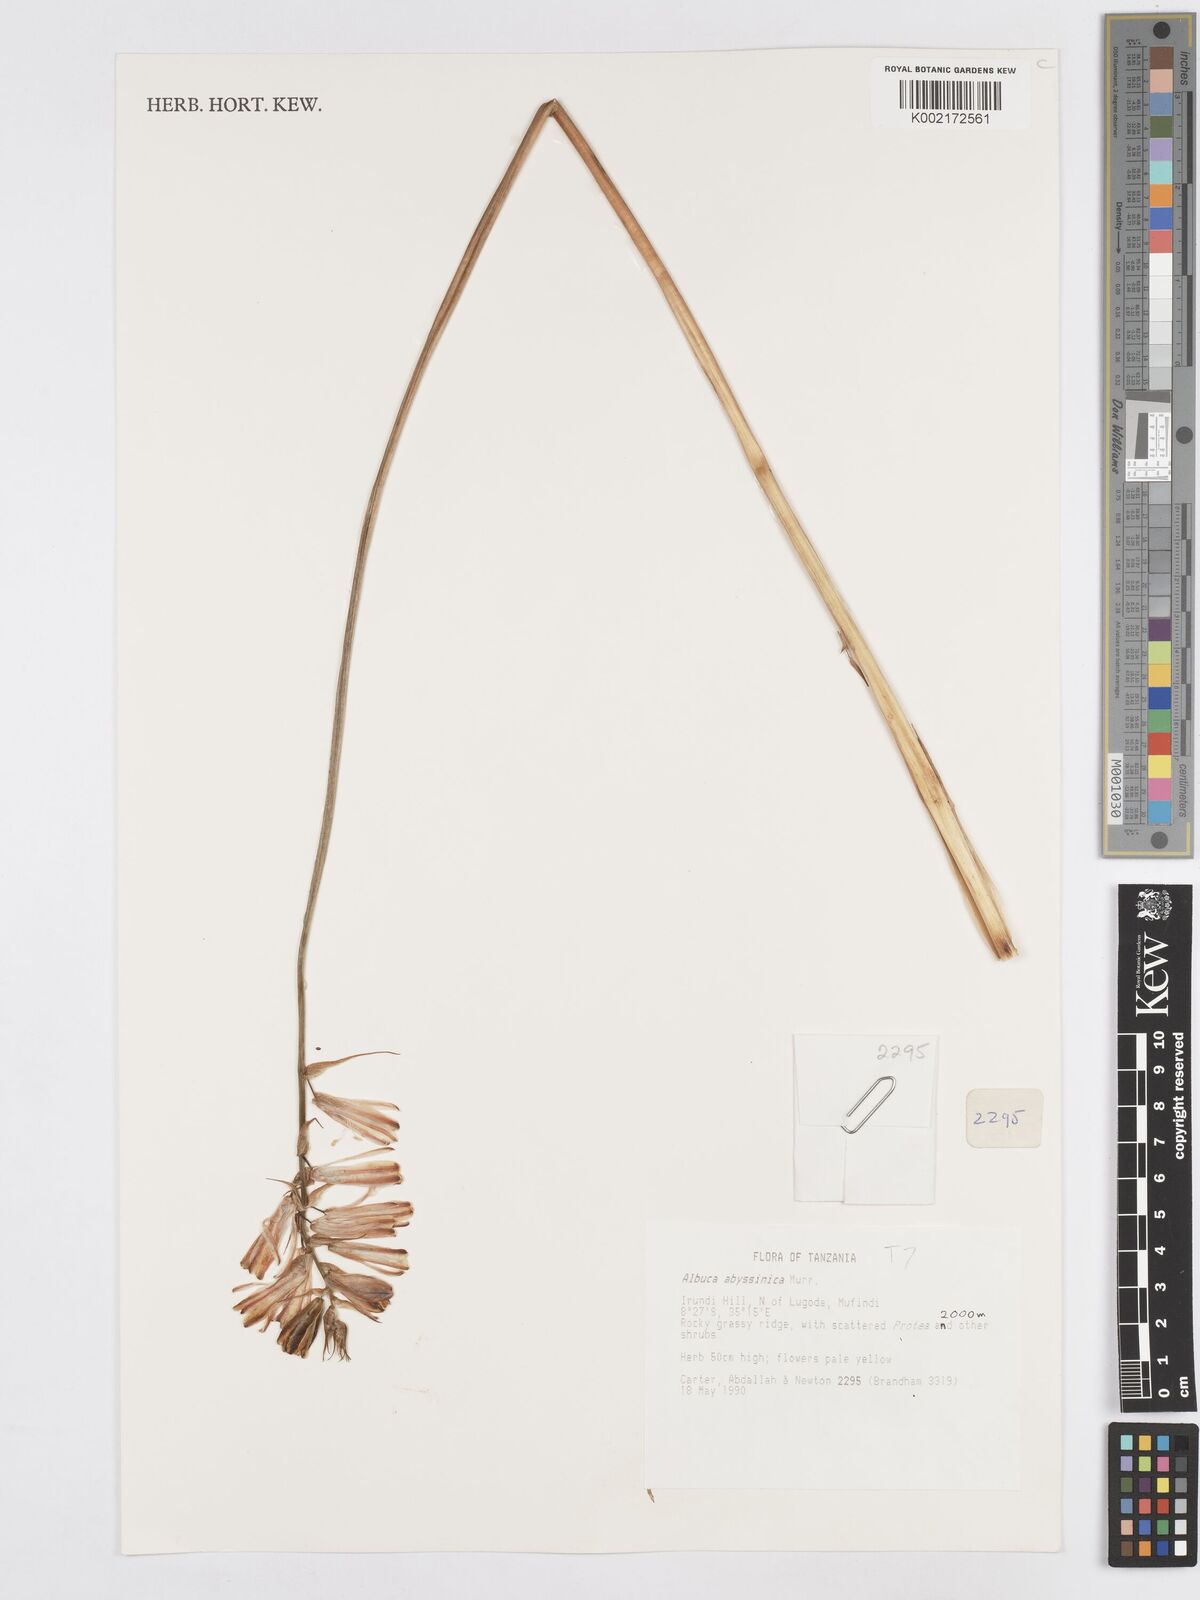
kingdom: Plantae
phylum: Tracheophyta
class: Liliopsida
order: Asparagales
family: Asparagaceae
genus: Albuca
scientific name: Albuca abyssinica
